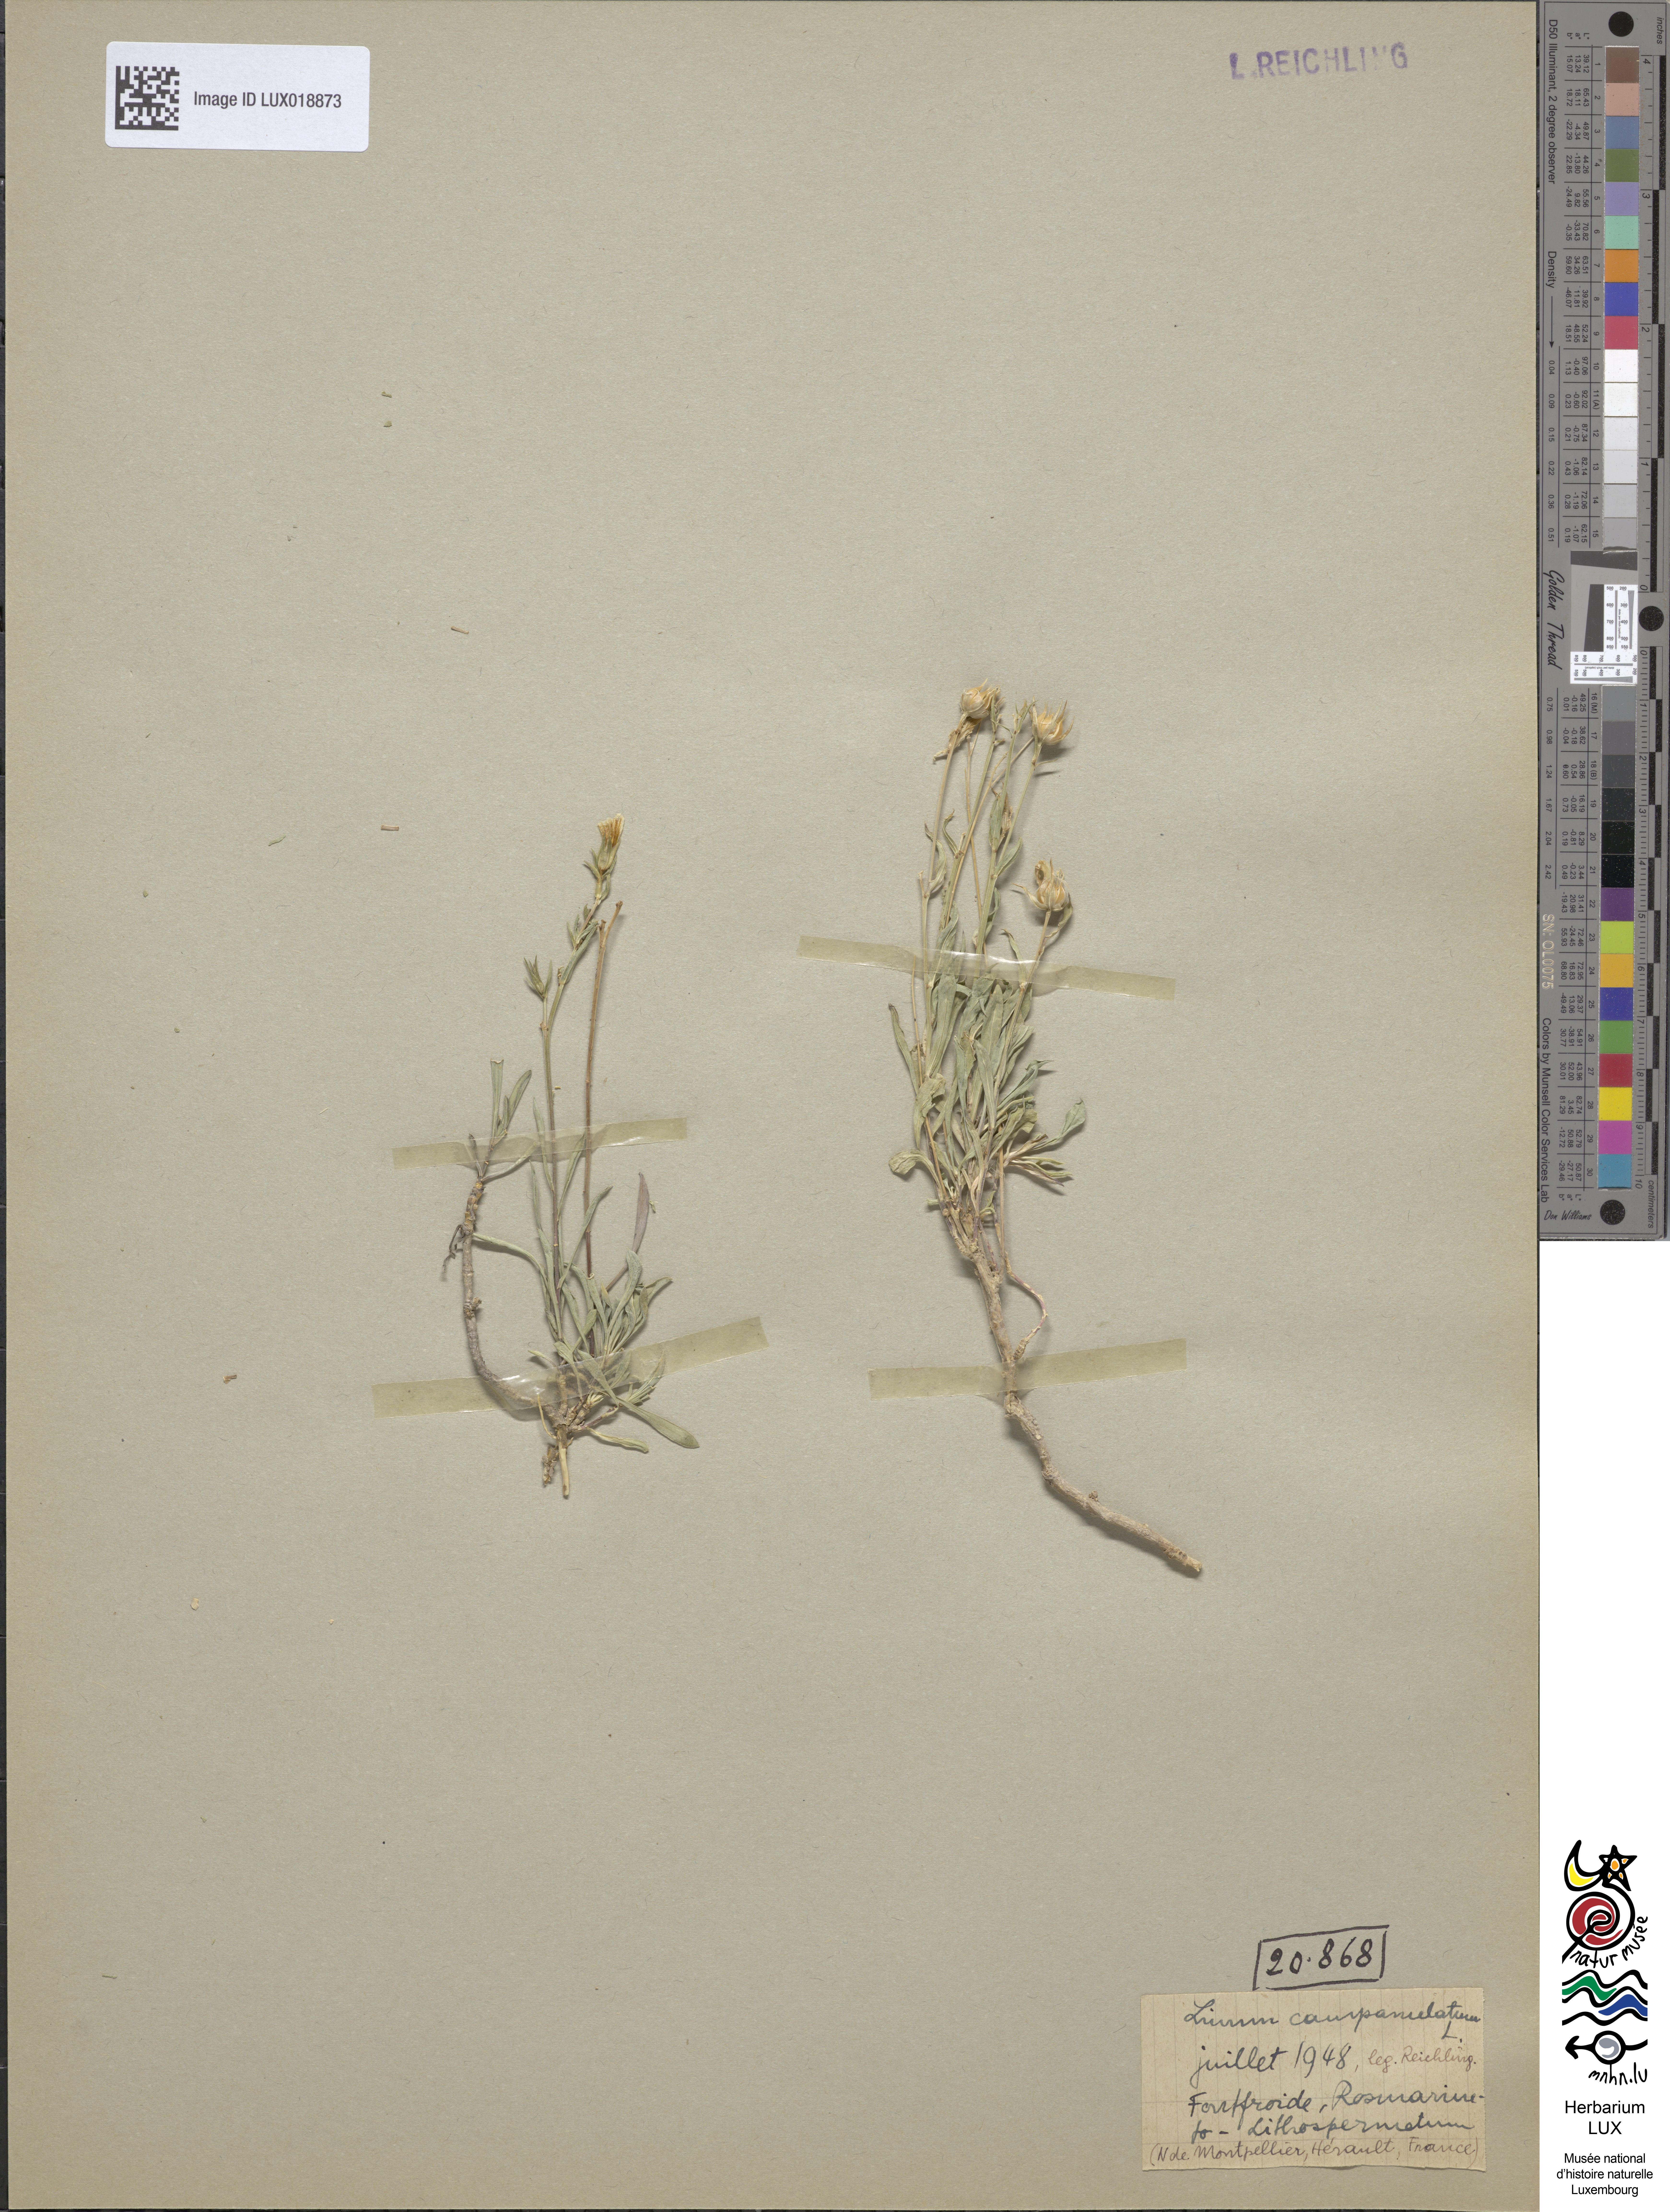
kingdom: Plantae
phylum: Tracheophyta
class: Magnoliopsida
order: Malpighiales
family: Linaceae
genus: Linum
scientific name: Linum campanulatum
